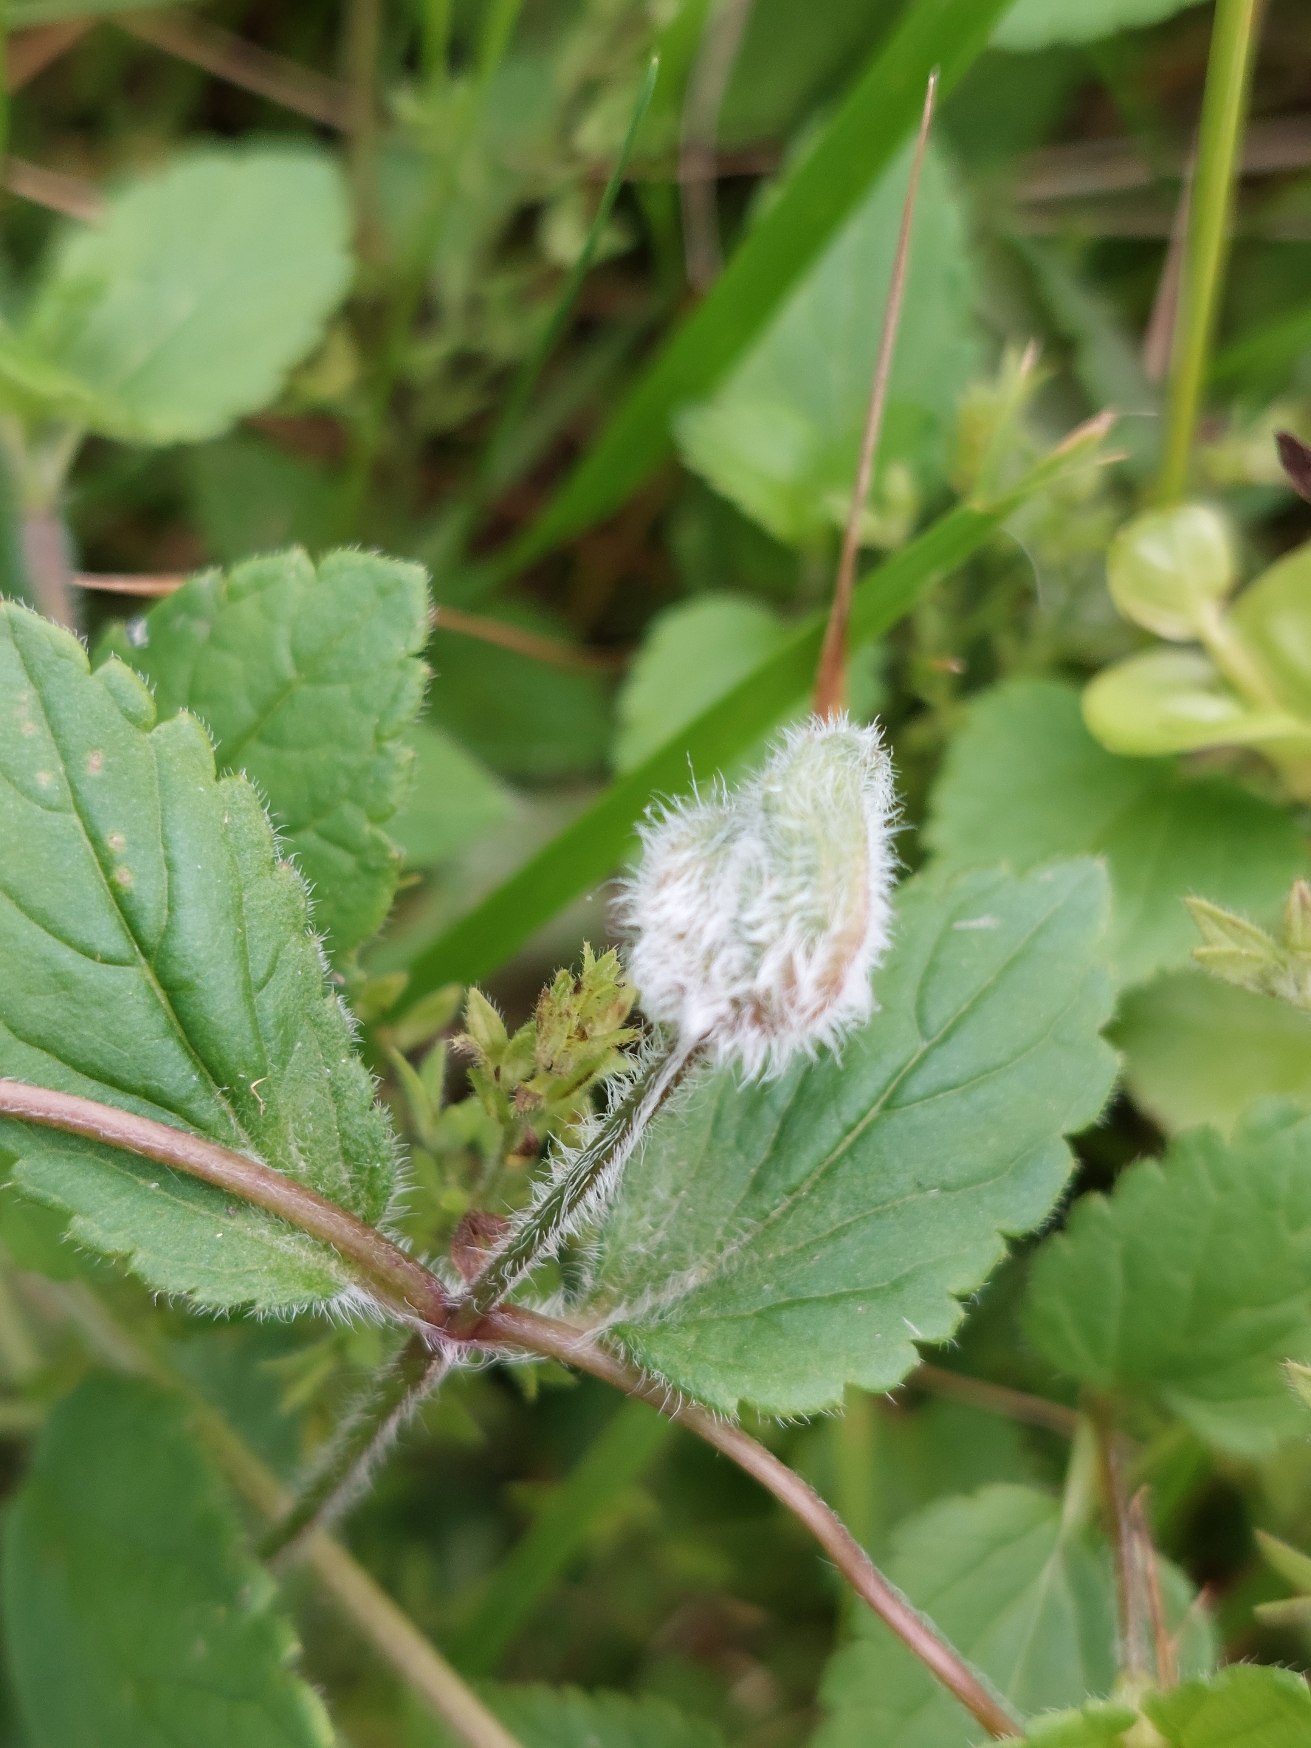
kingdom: Animalia
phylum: Arthropoda
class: Insecta
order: Diptera
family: Cecidomyiidae
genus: Jaapiella
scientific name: Jaapiella veronicae
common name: Ærenprisgalmyg
